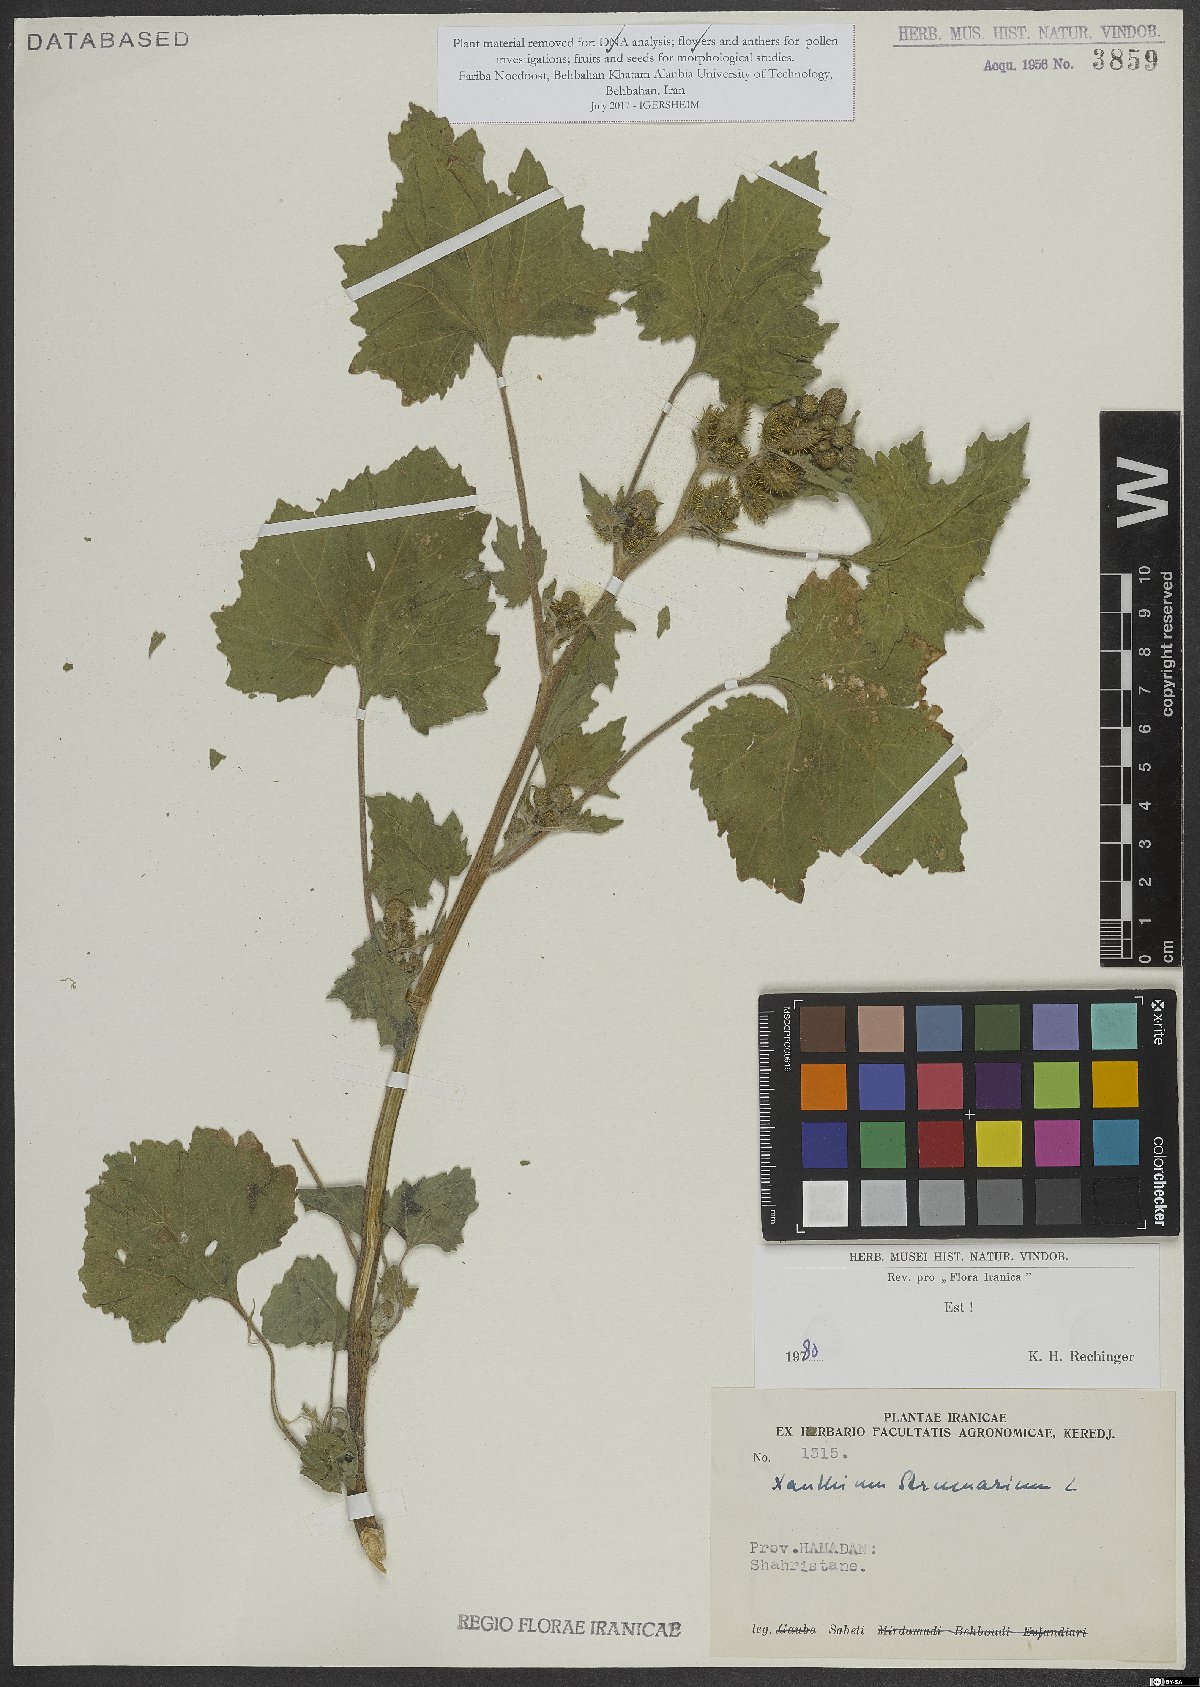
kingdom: Plantae
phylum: Tracheophyta
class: Magnoliopsida
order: Asterales
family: Asteraceae
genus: Xanthium
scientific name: Xanthium strumarium
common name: Rough cocklebur
